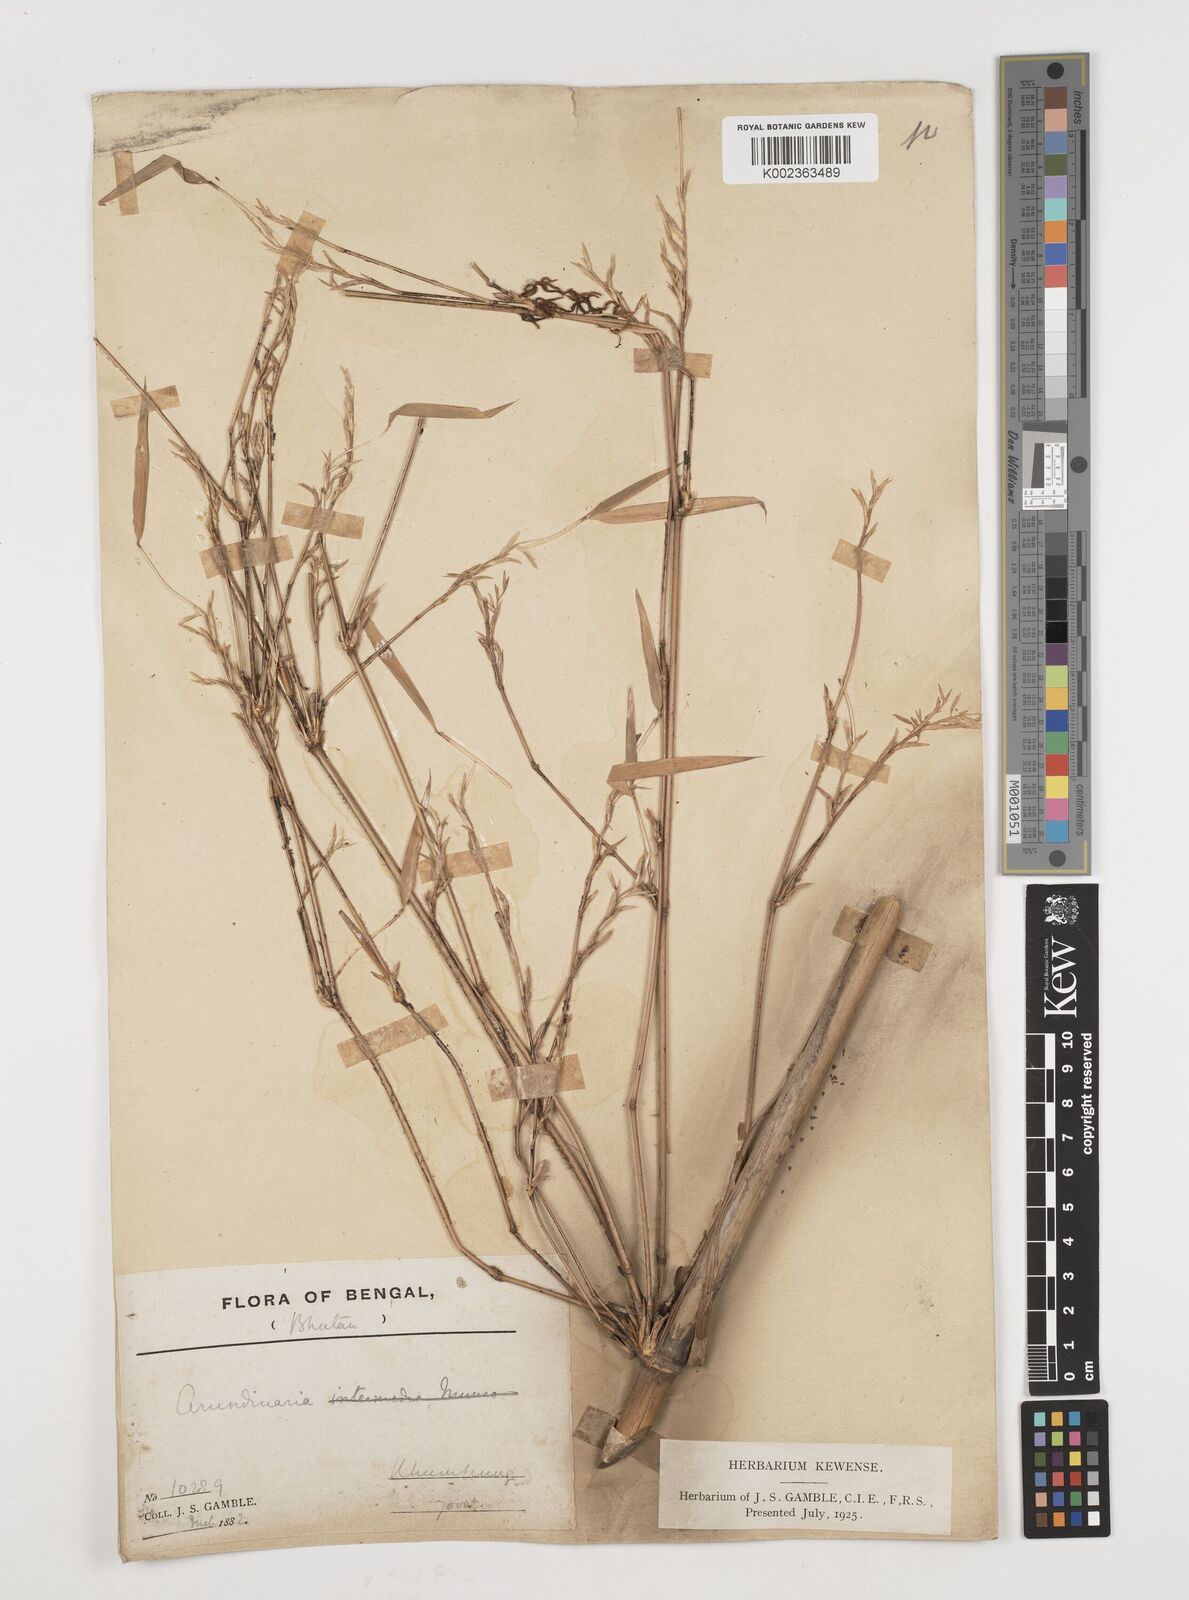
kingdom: Plantae
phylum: Tracheophyta
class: Liliopsida
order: Poales
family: Poaceae
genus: Himalayacalamus
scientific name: Himalayacalamus
